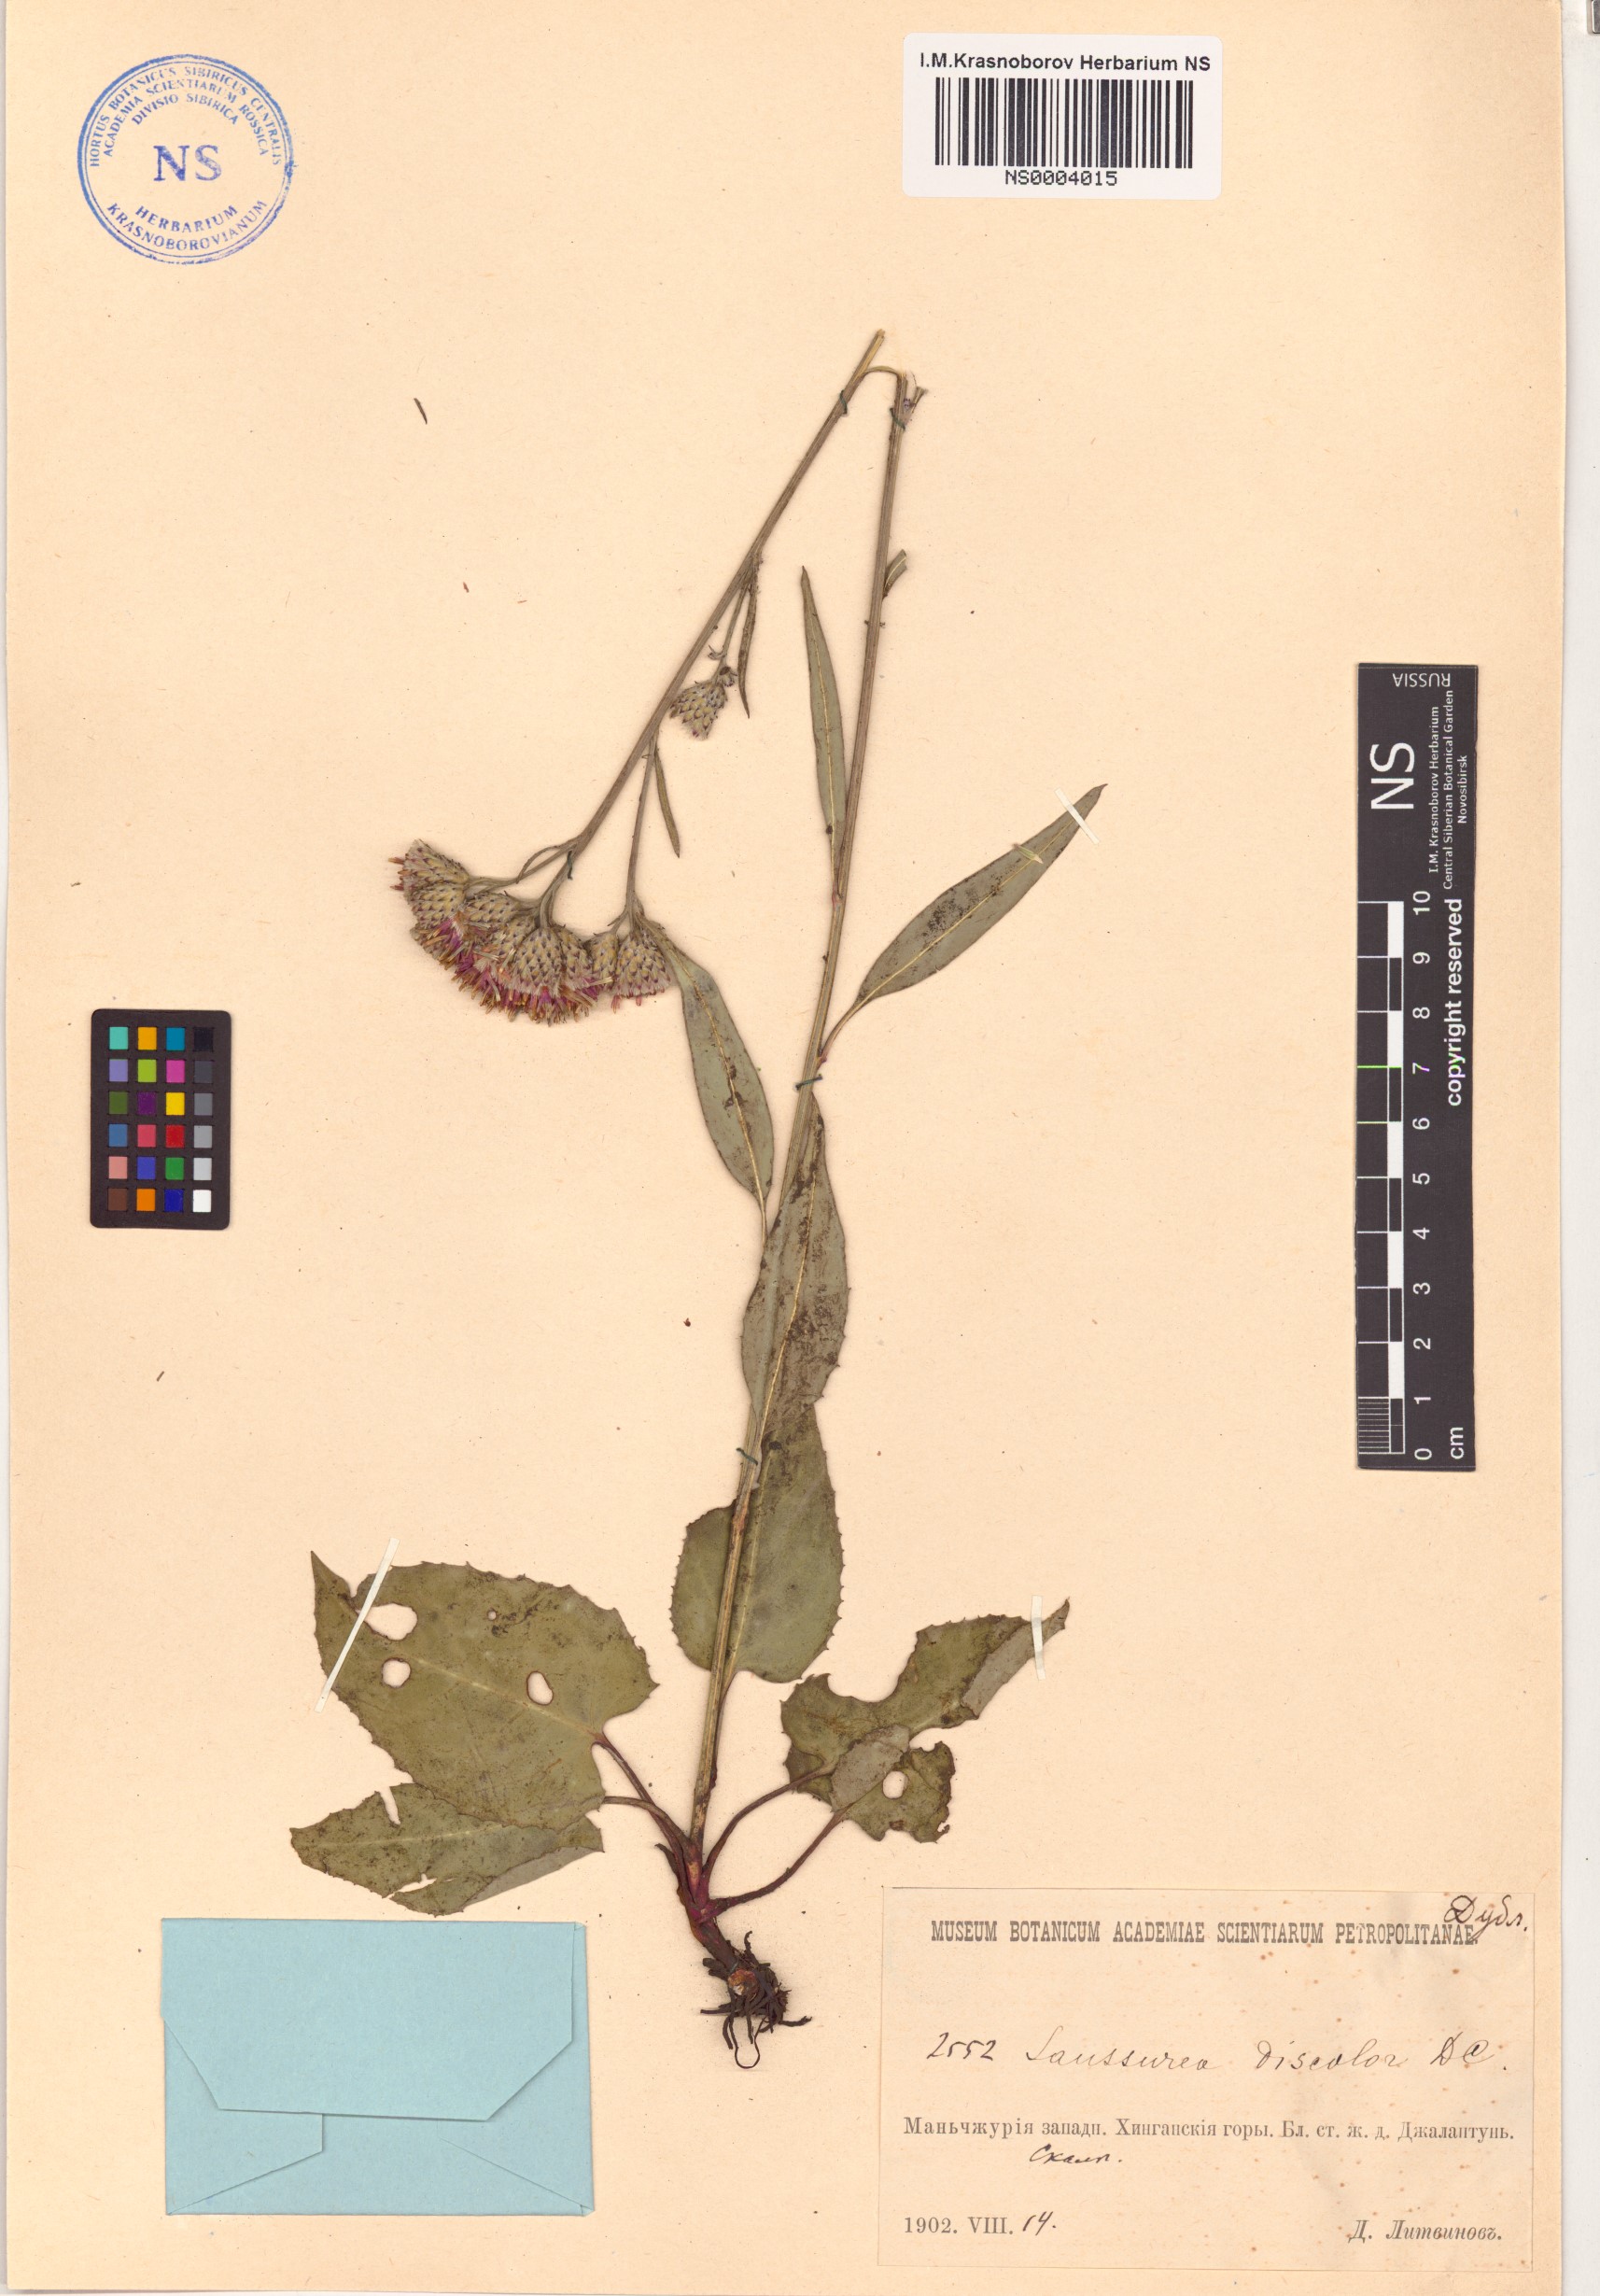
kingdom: Plantae
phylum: Tracheophyta
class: Magnoliopsida
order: Asterales
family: Asteraceae
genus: Saussurea
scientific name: Saussurea discolor
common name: Heart-leaved saussurea
